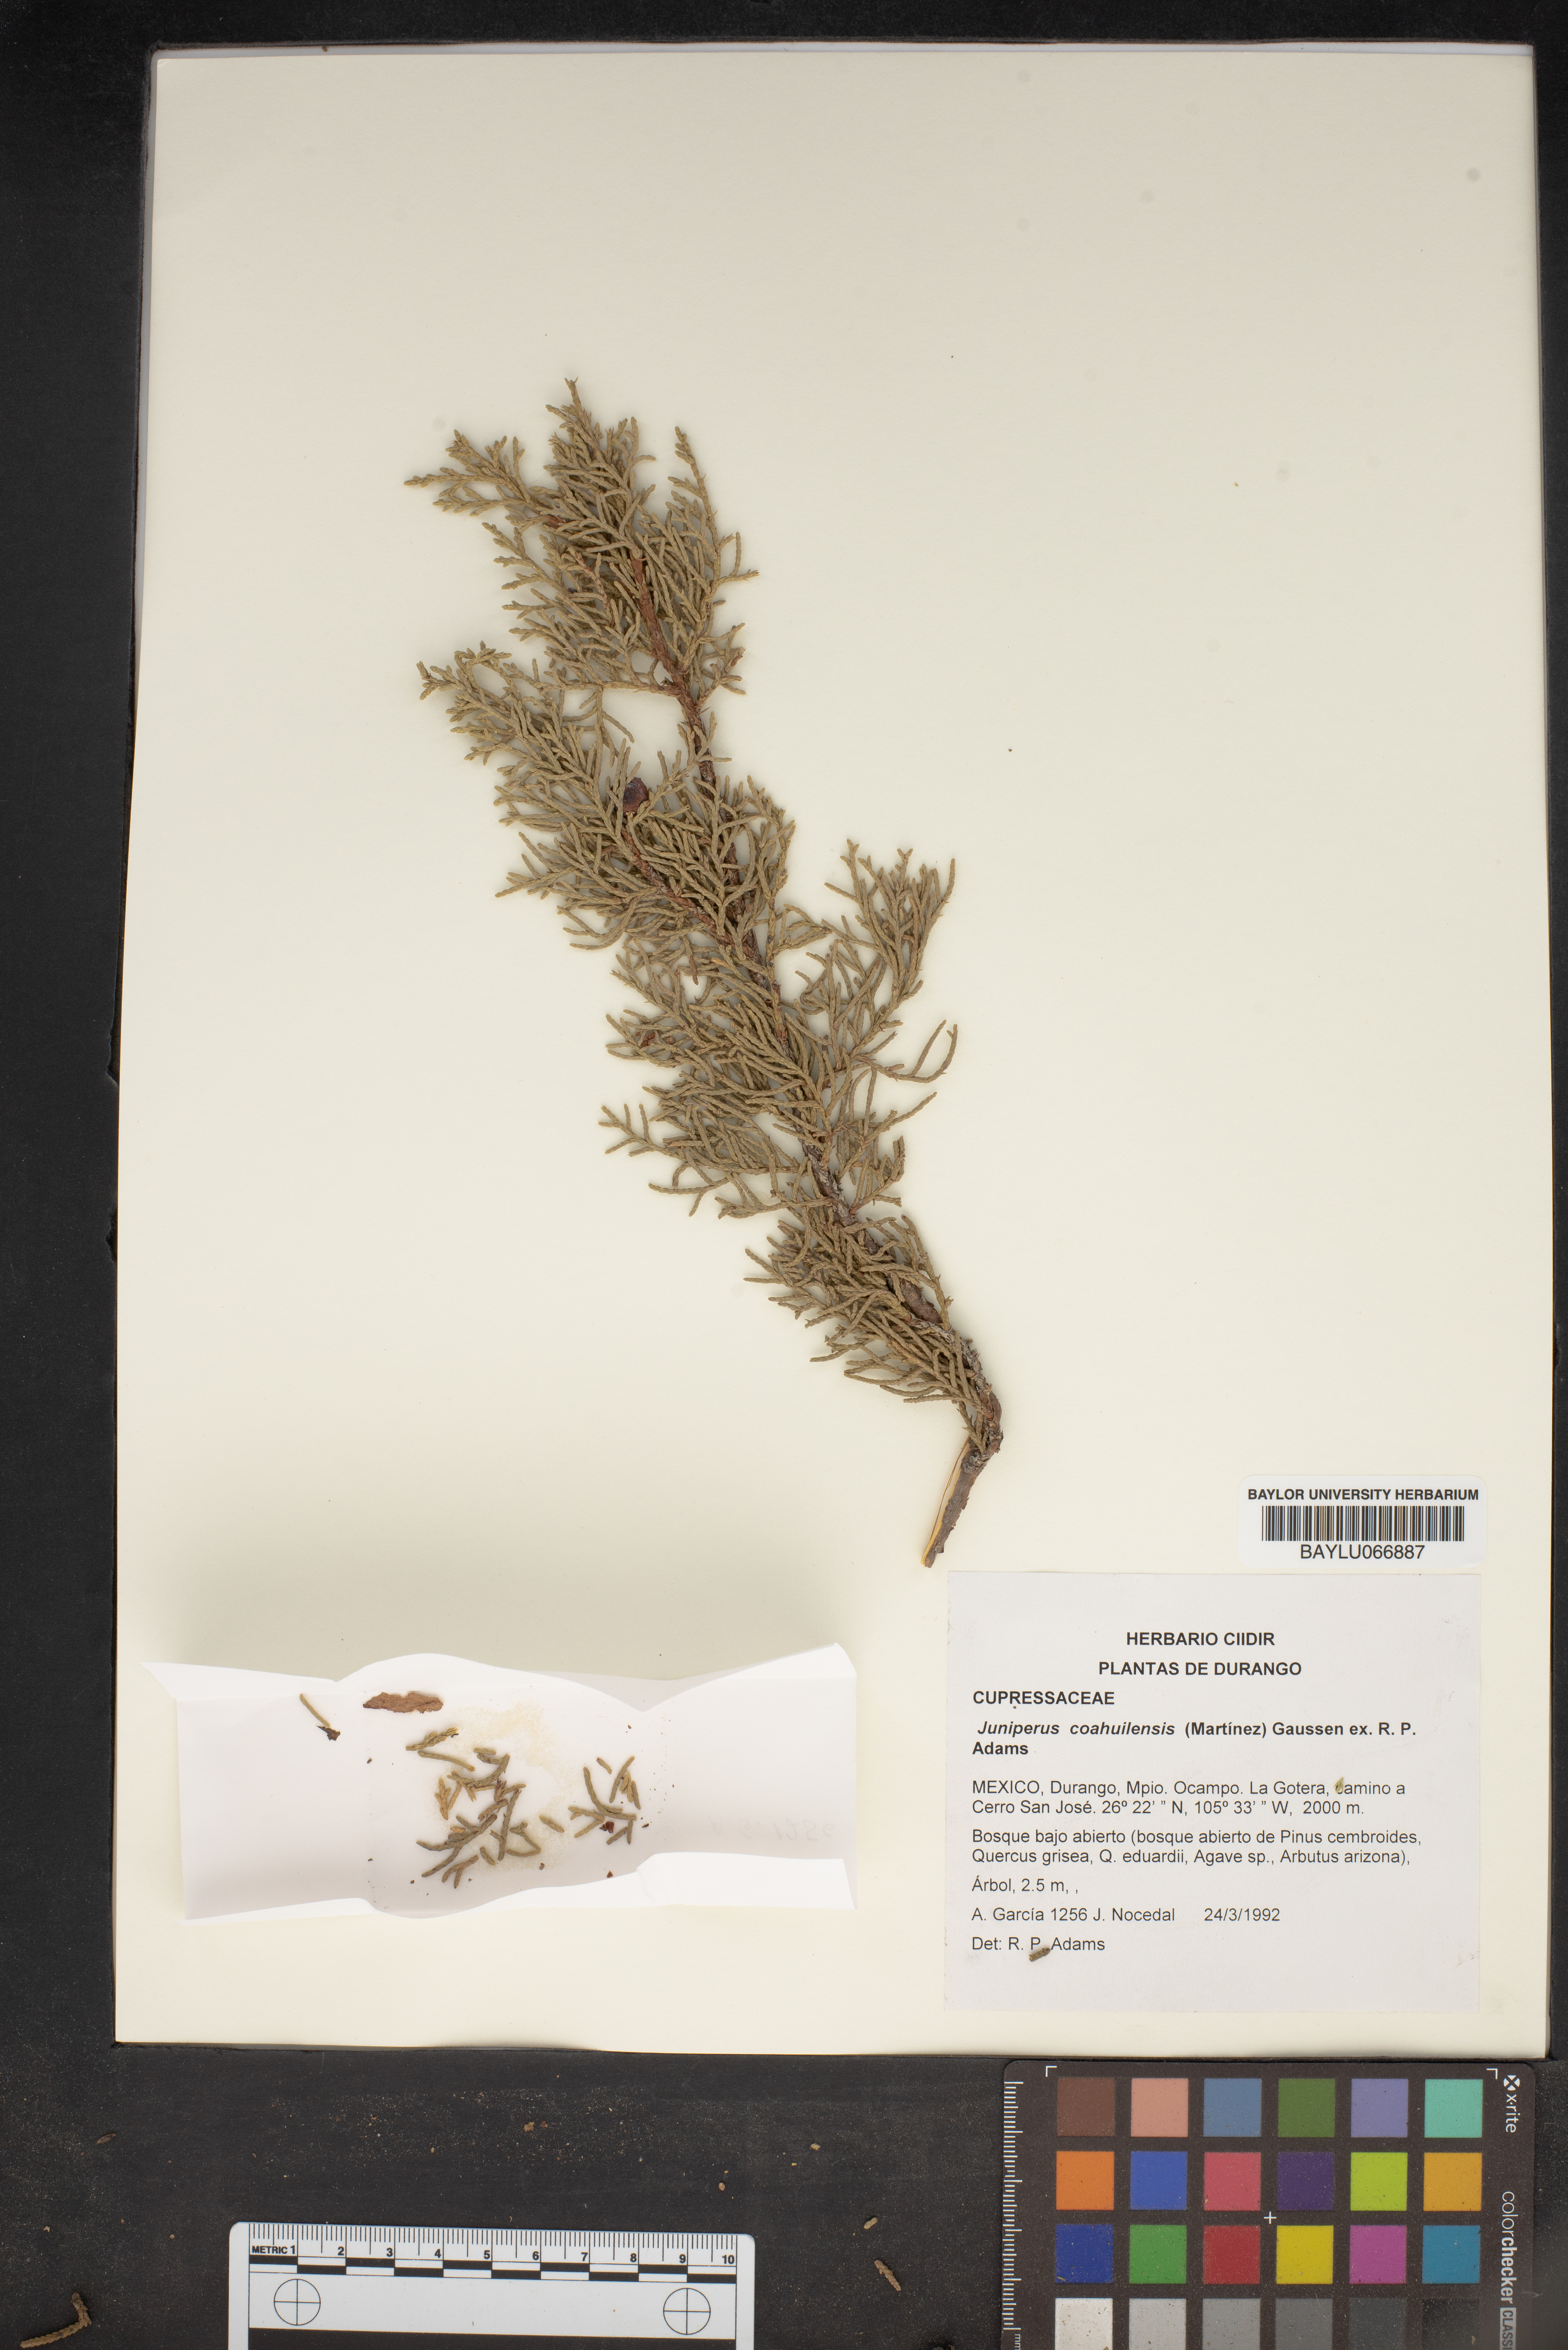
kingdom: Plantae
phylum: Tracheophyta
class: Pinopsida
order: Pinales
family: Cupressaceae
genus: Juniperus
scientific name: Juniperus coahuilensis
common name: Roseberry
